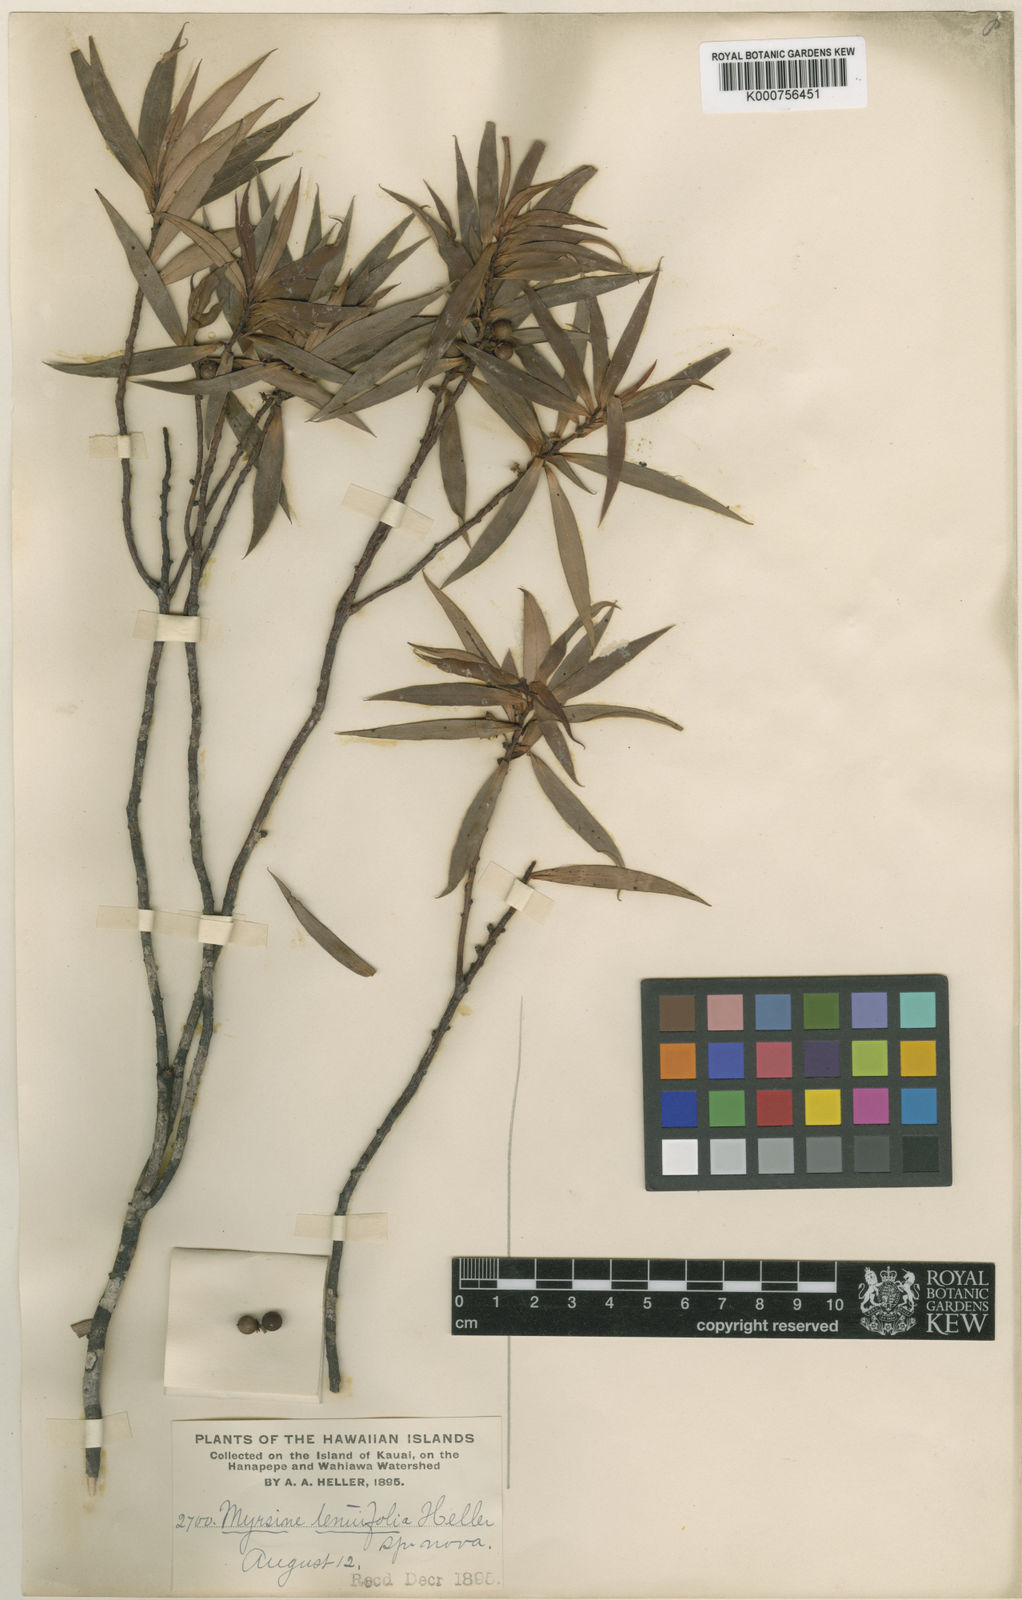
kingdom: Plantae
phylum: Tracheophyta
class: Magnoliopsida
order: Ericales
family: Primulaceae
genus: Myrsine
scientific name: Myrsine helleri
